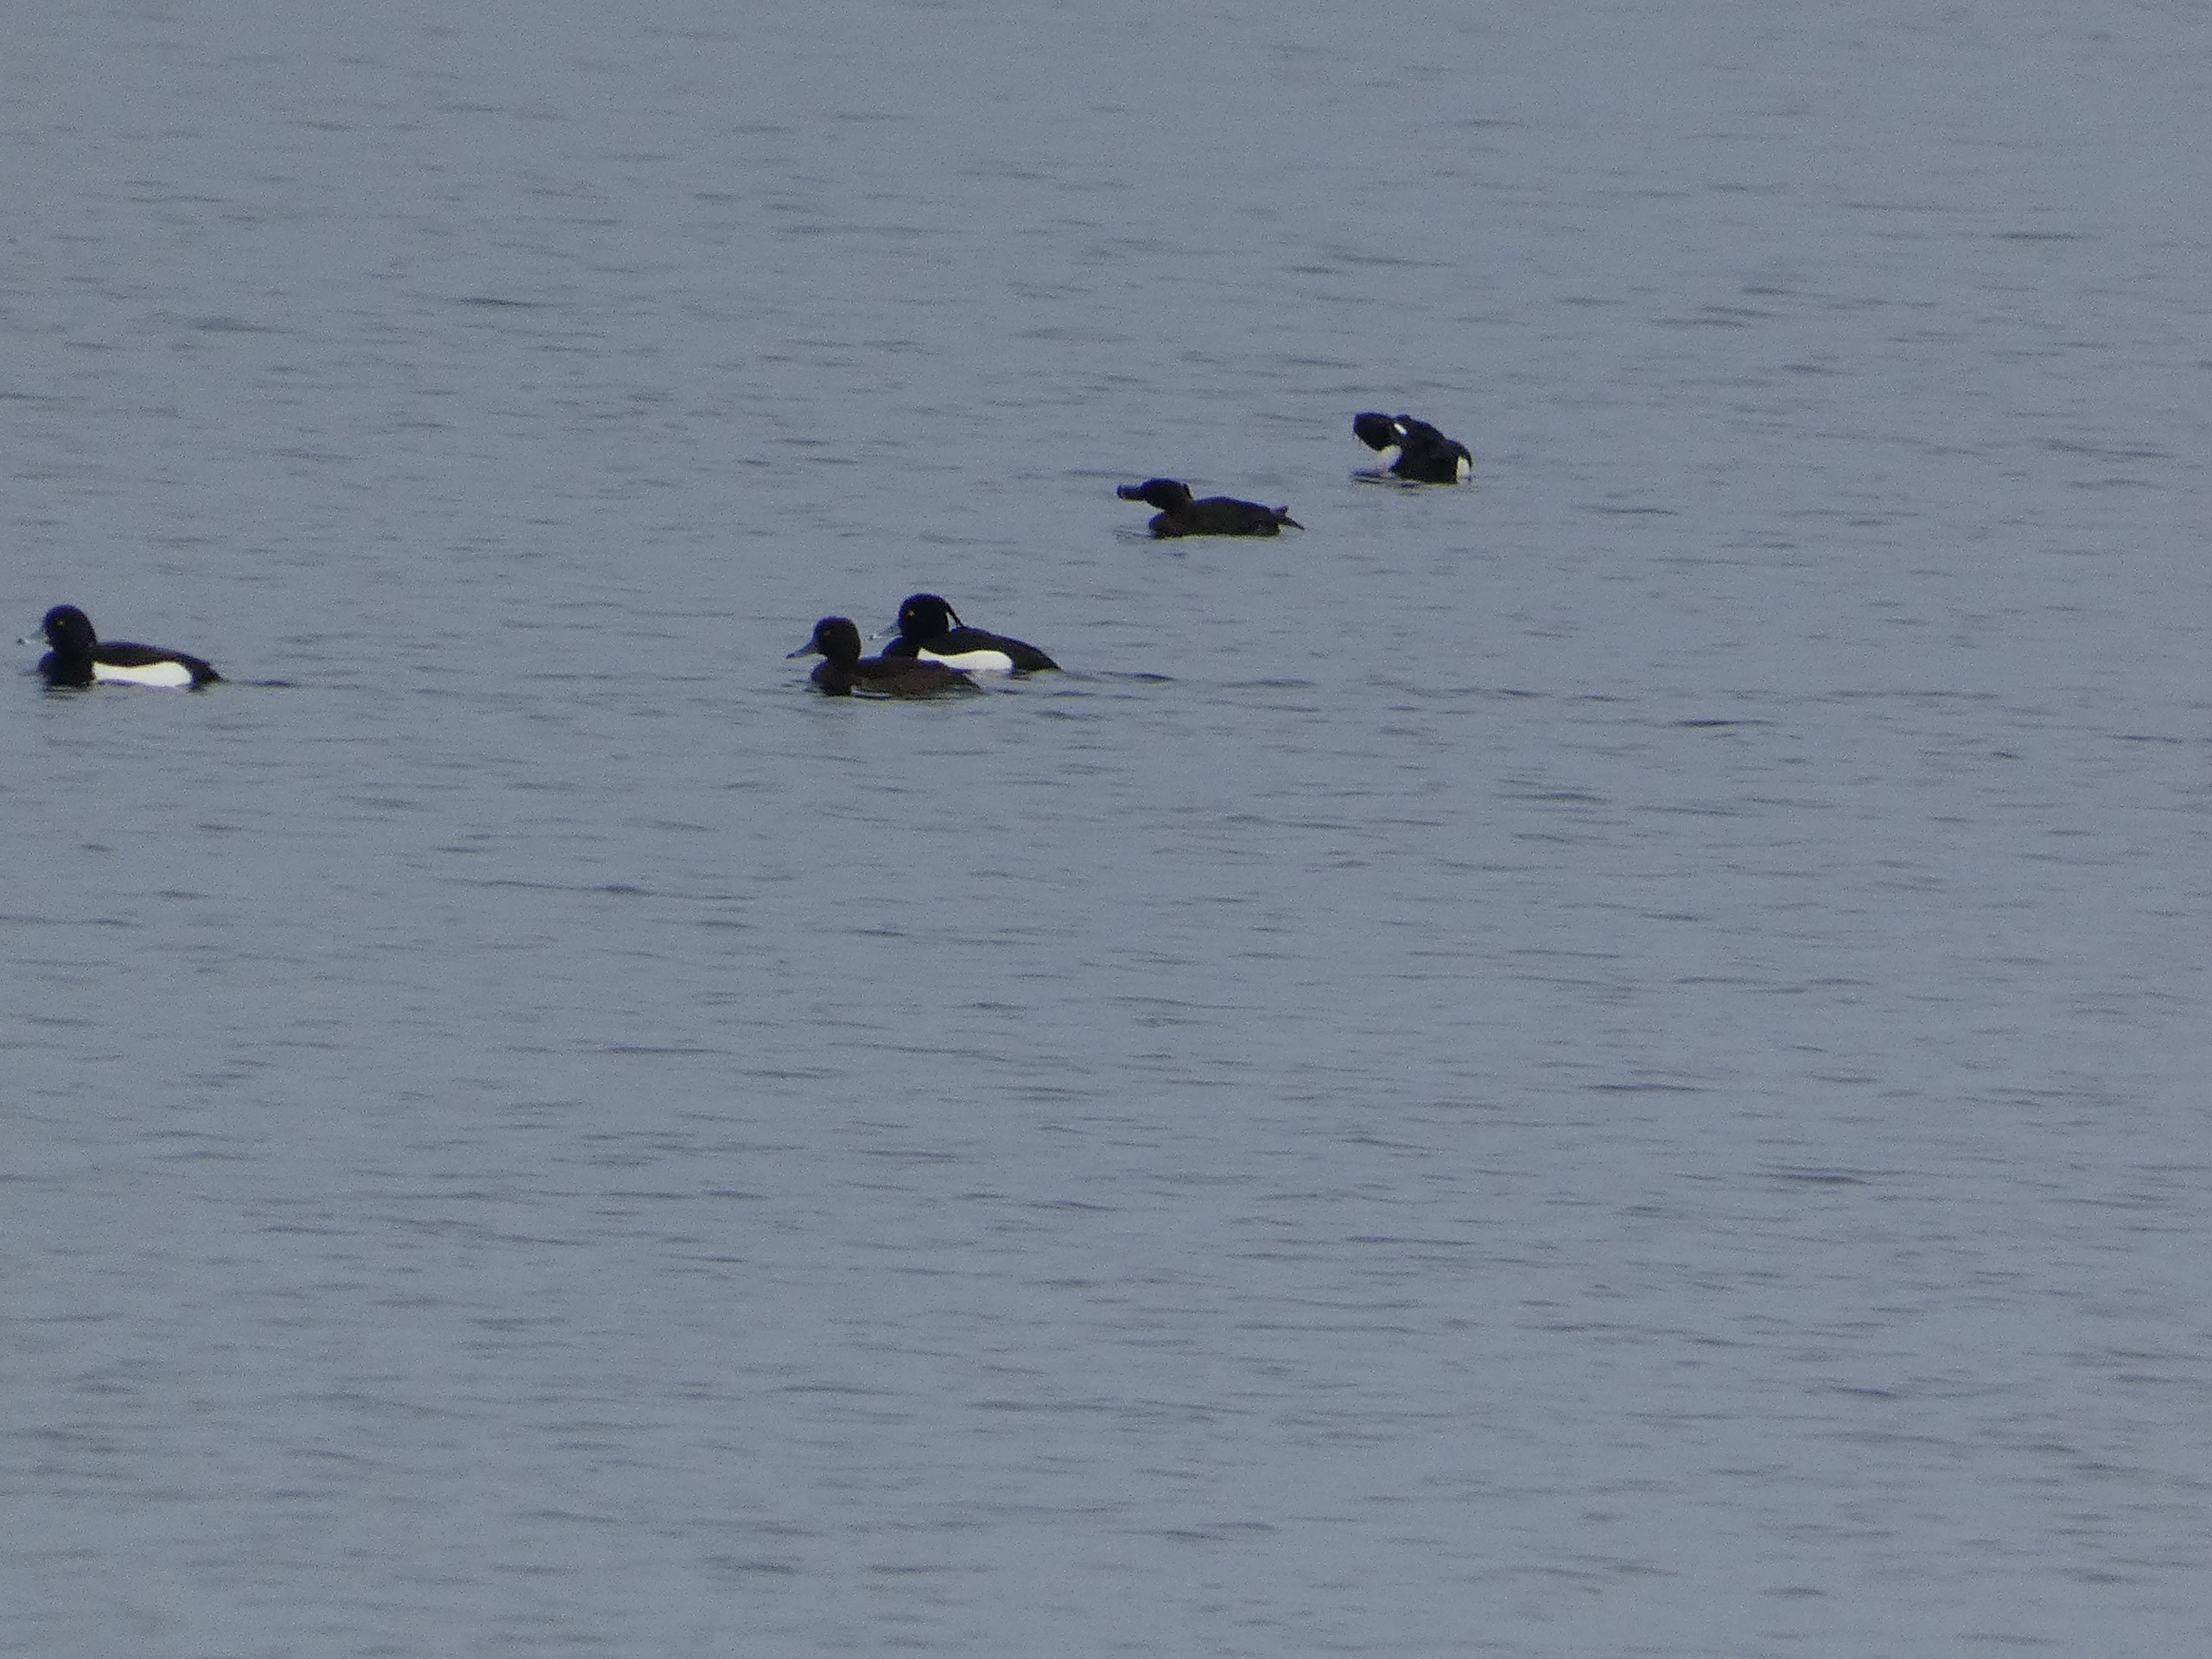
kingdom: Animalia
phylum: Chordata
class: Aves
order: Anseriformes
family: Anatidae
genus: Aythya
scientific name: Aythya fuligula
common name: Troldand
